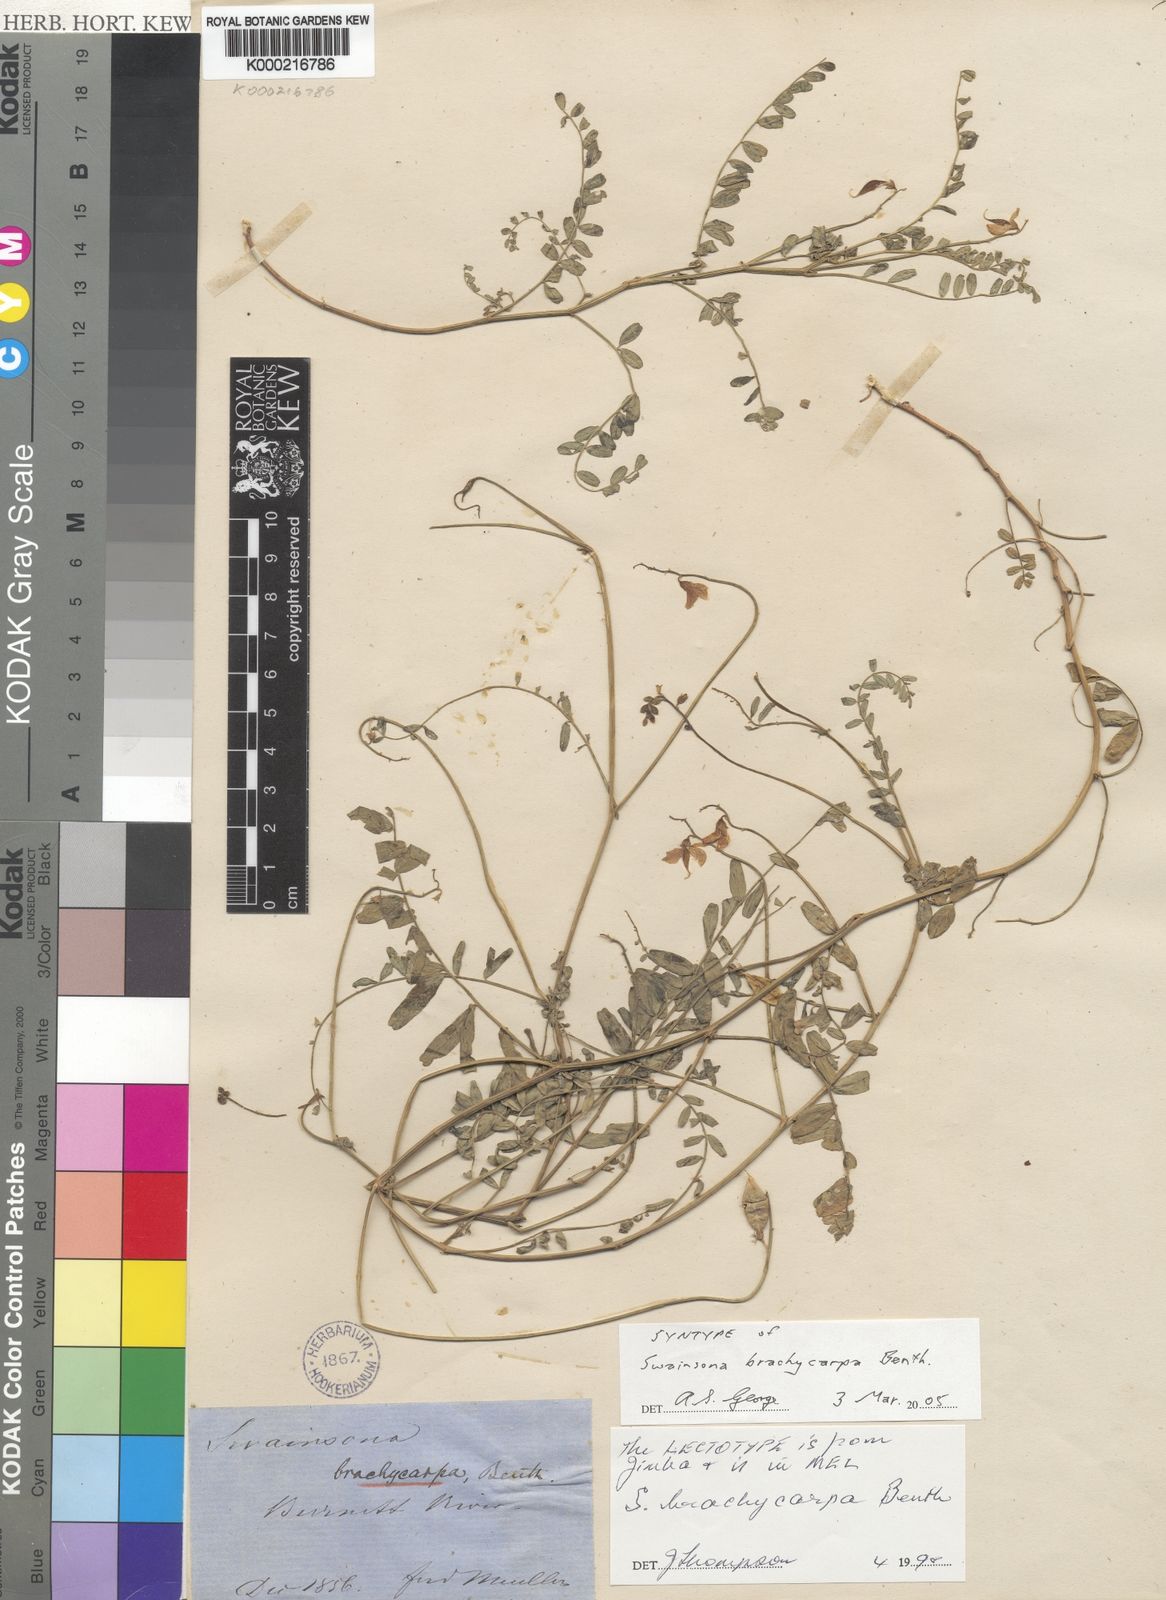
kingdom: Plantae
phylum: Tracheophyta
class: Magnoliopsida
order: Fabales
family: Fabaceae
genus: Swainsona
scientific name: Swainsona brachycarpa
